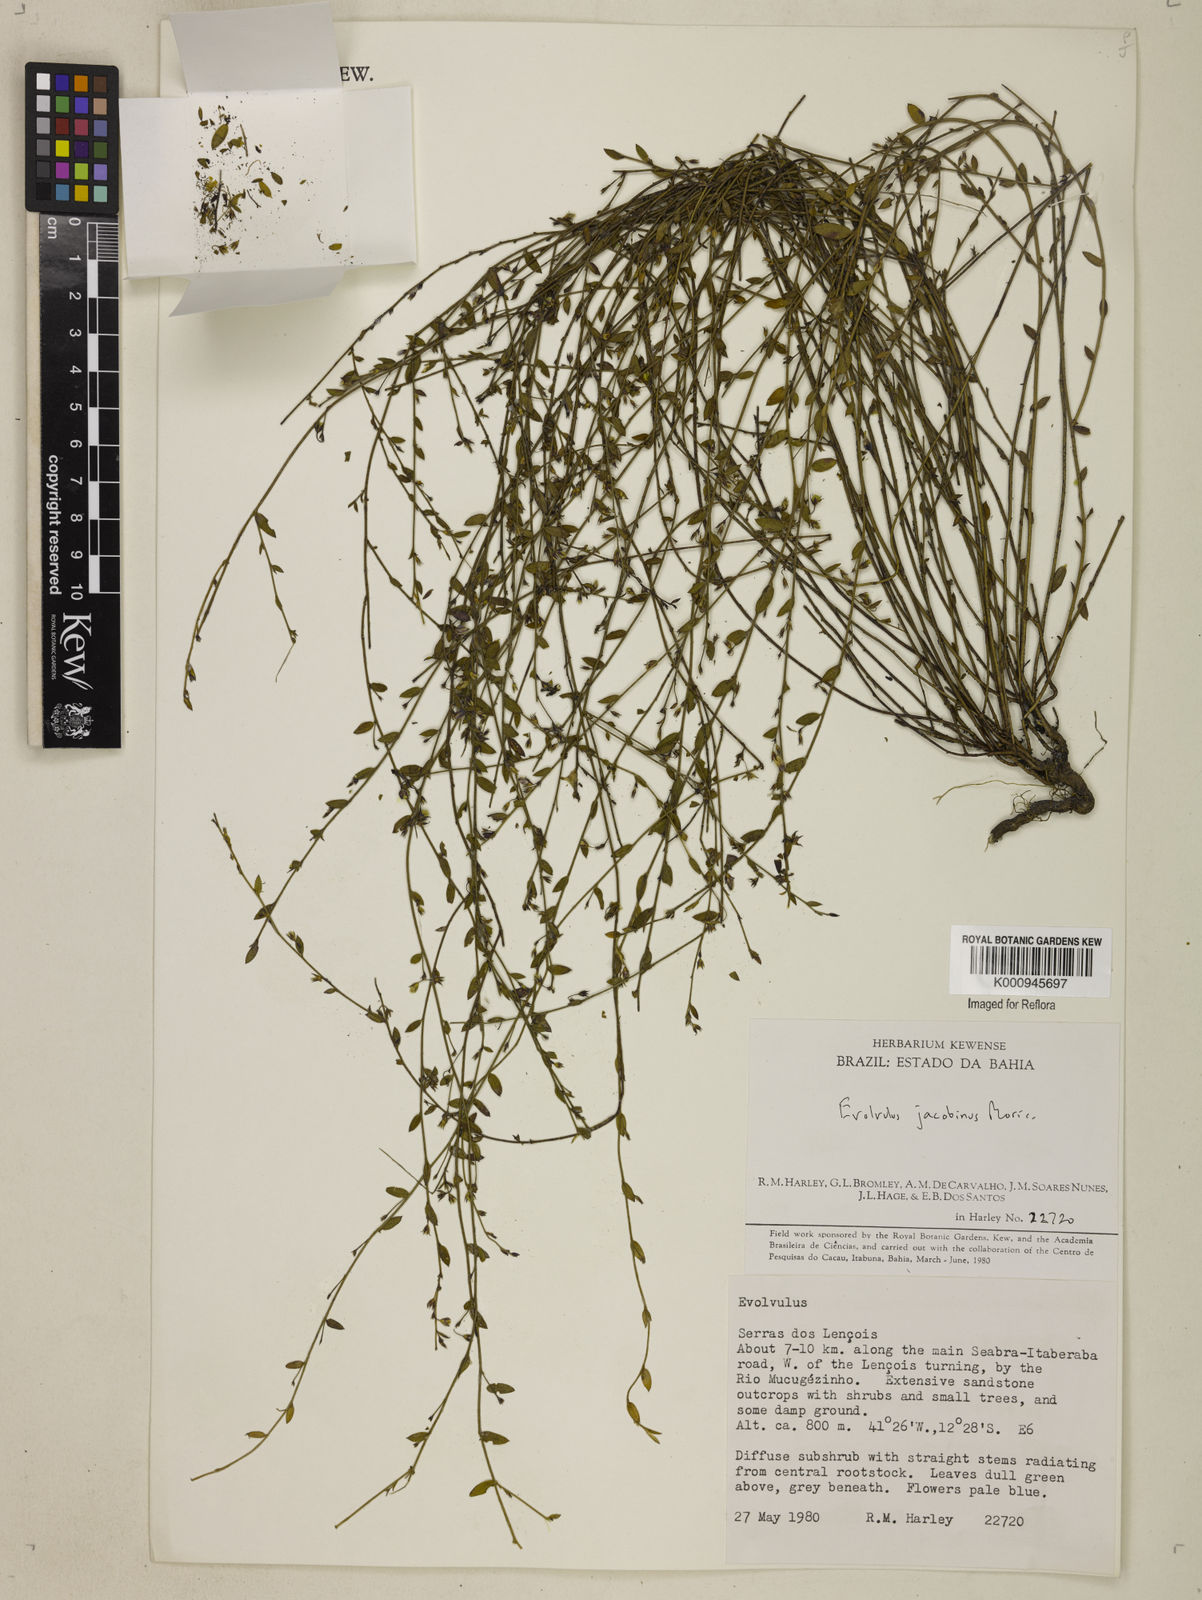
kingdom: Plantae
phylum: Tracheophyta
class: Magnoliopsida
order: Solanales
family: Convolvulaceae
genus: Evolvulus
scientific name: Evolvulus jacobinus
